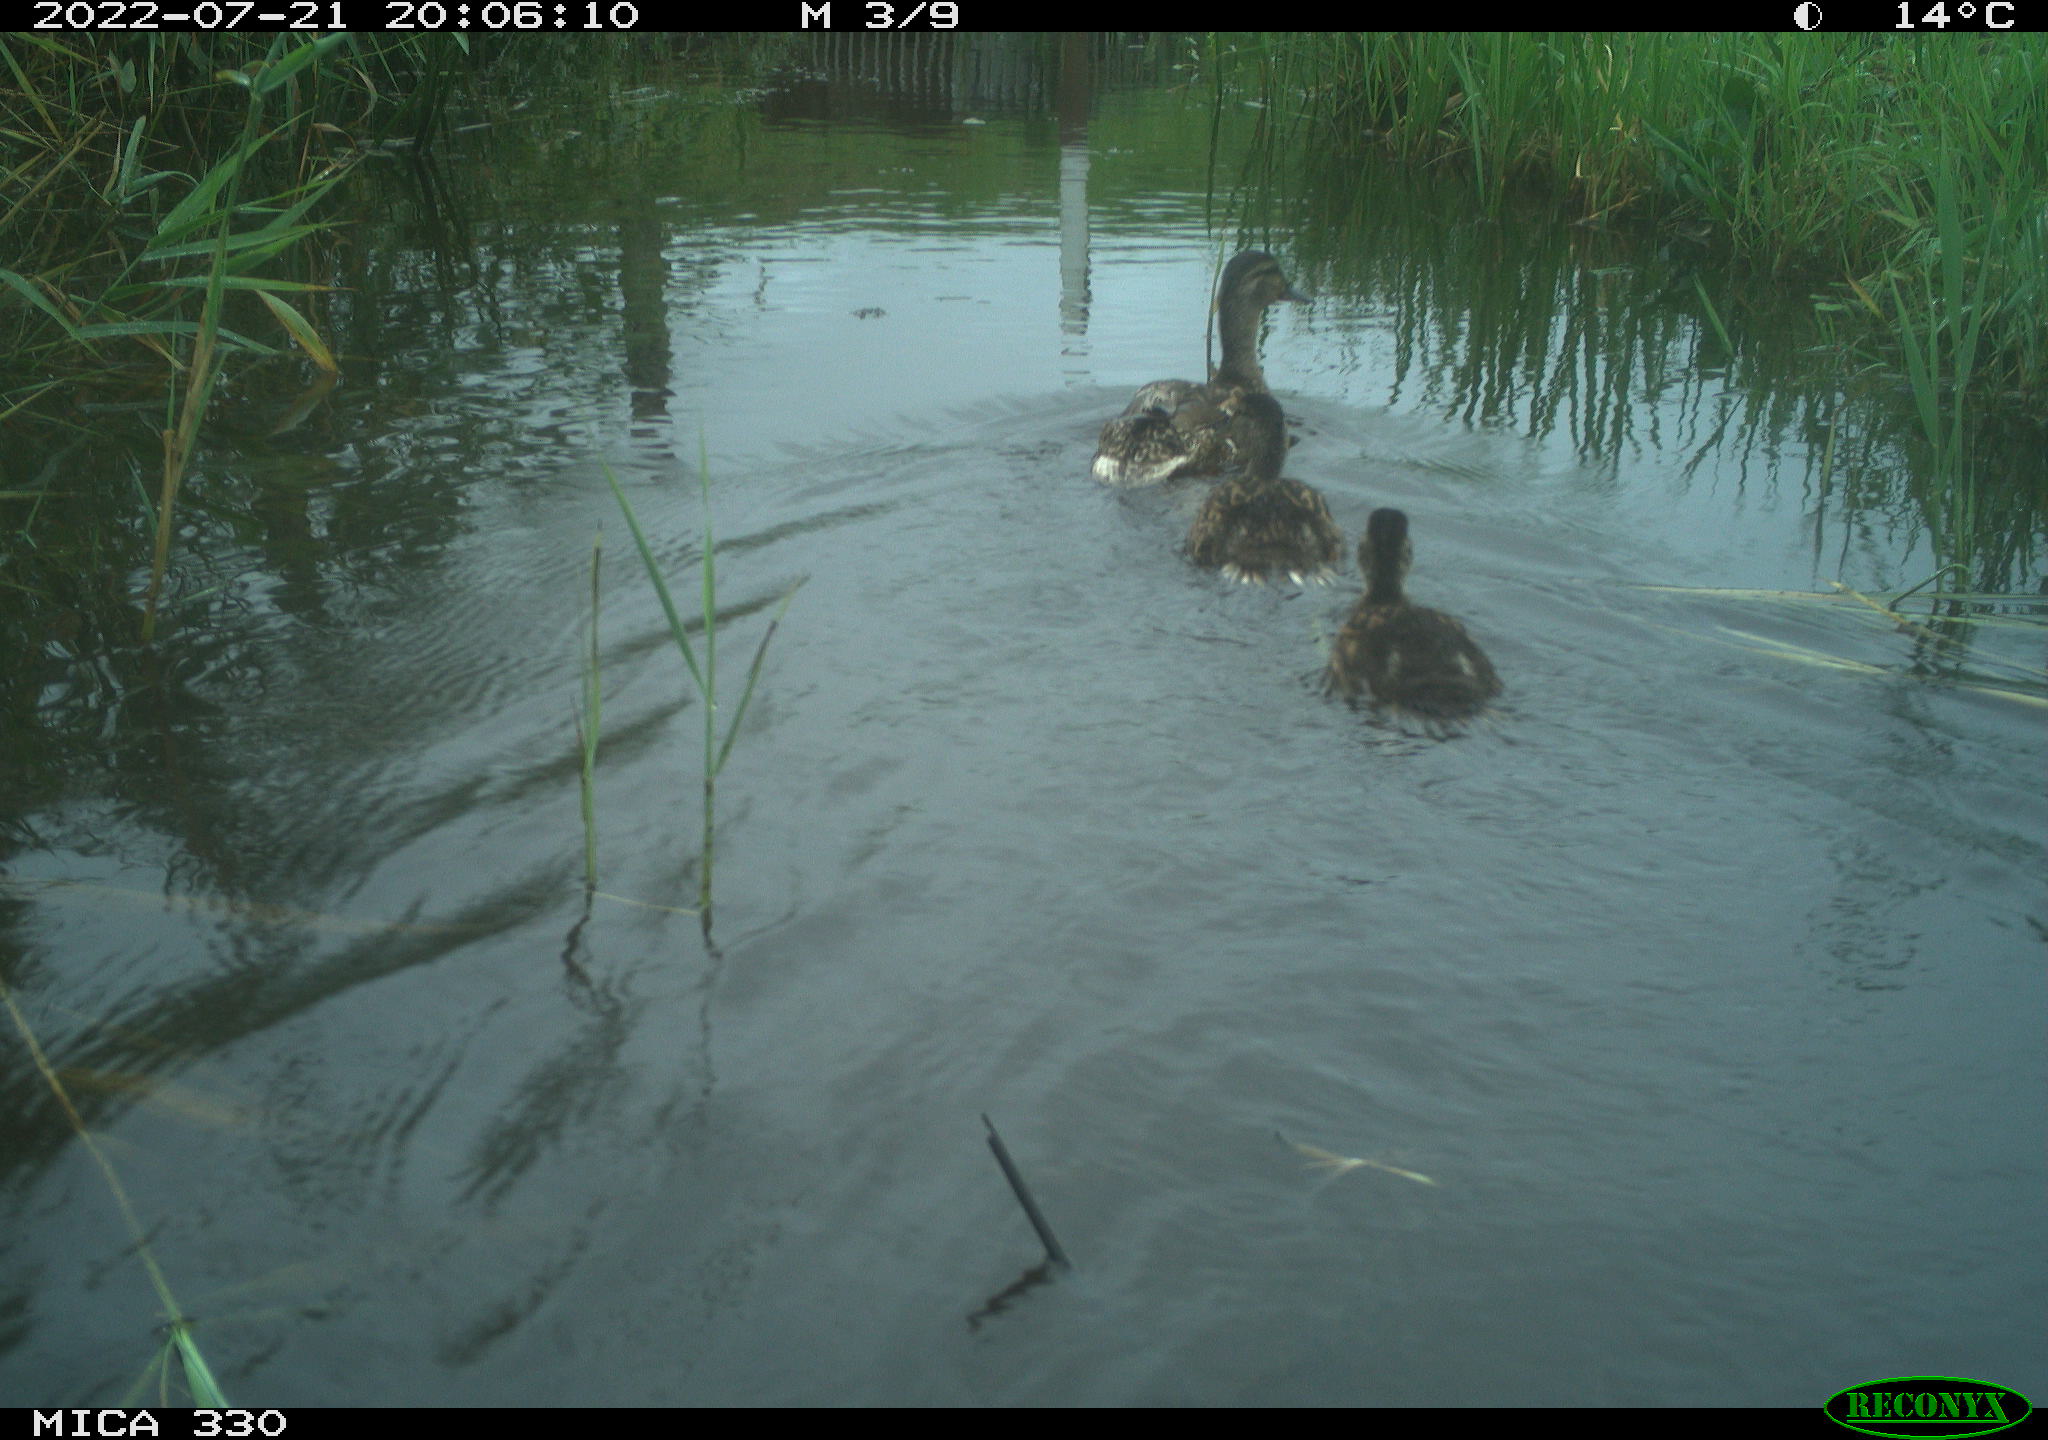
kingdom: Animalia
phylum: Chordata
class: Aves
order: Anseriformes
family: Anatidae
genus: Mareca
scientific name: Mareca strepera
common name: Gadwall
